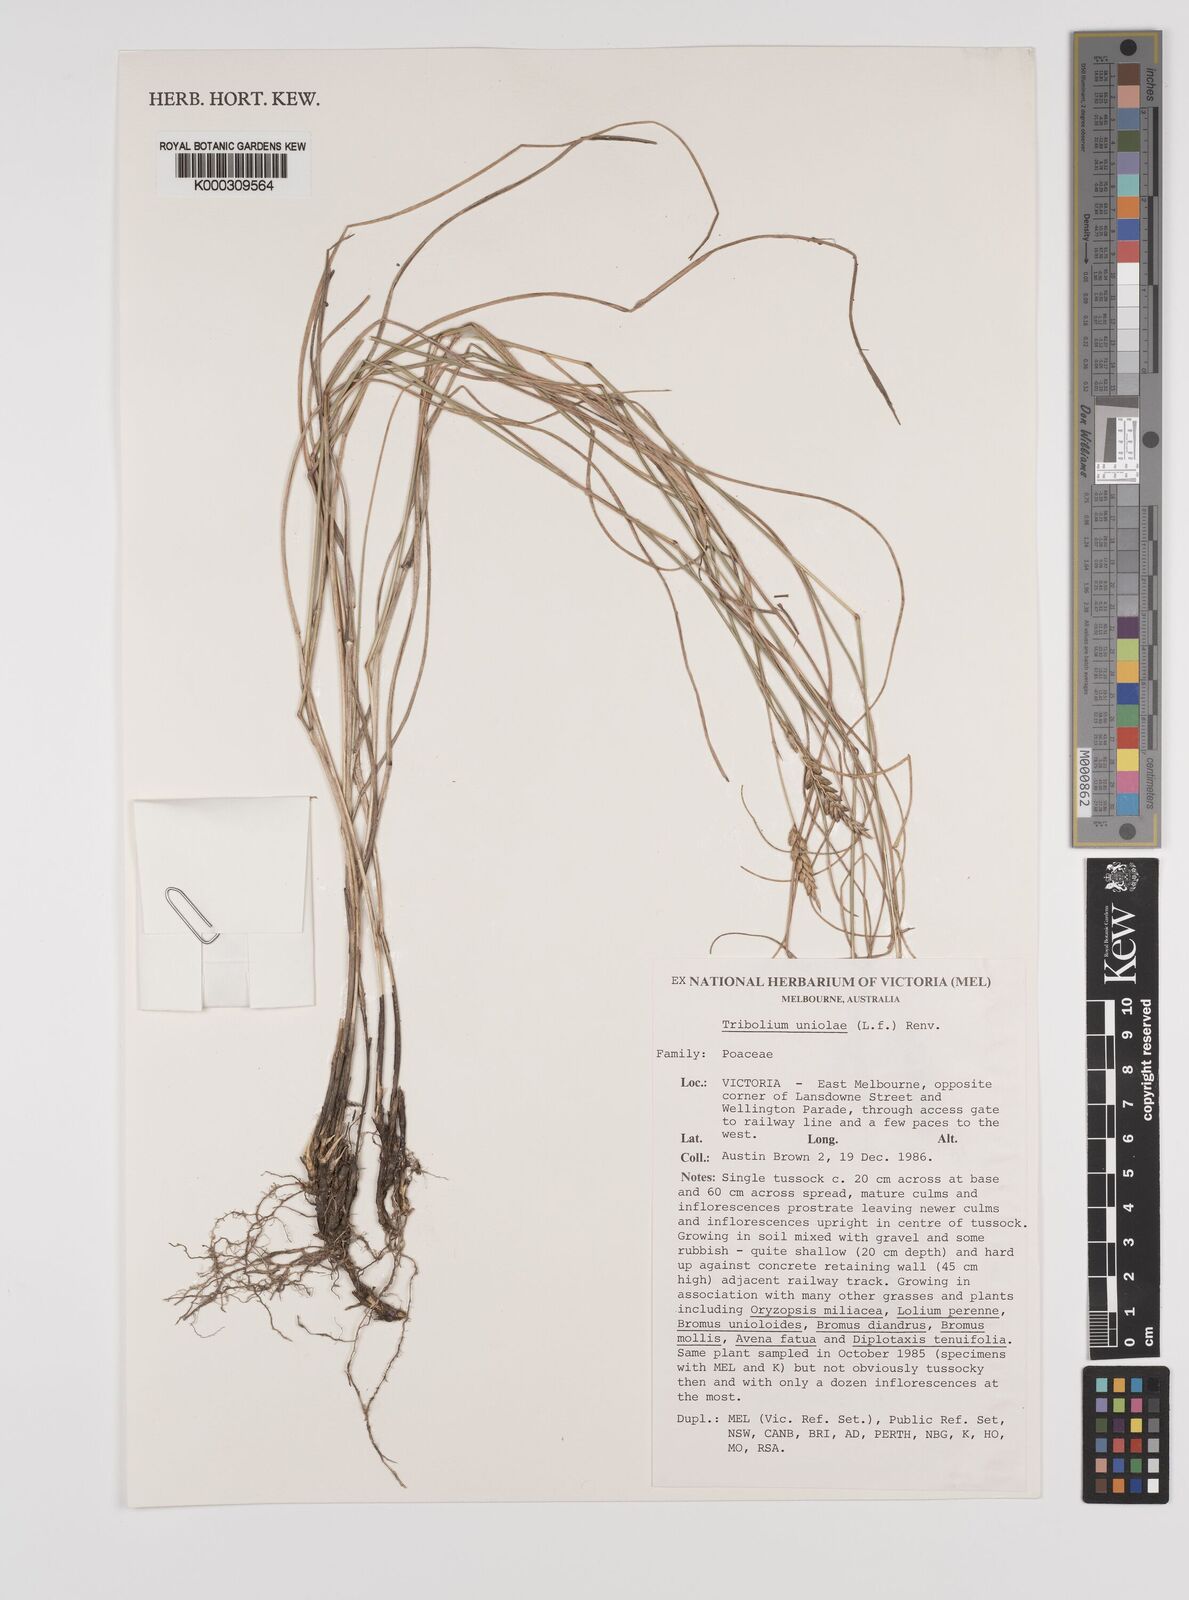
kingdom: Plantae
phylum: Tracheophyta
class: Liliopsida
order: Poales
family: Poaceae
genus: Tribolium
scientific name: Tribolium uniolae
